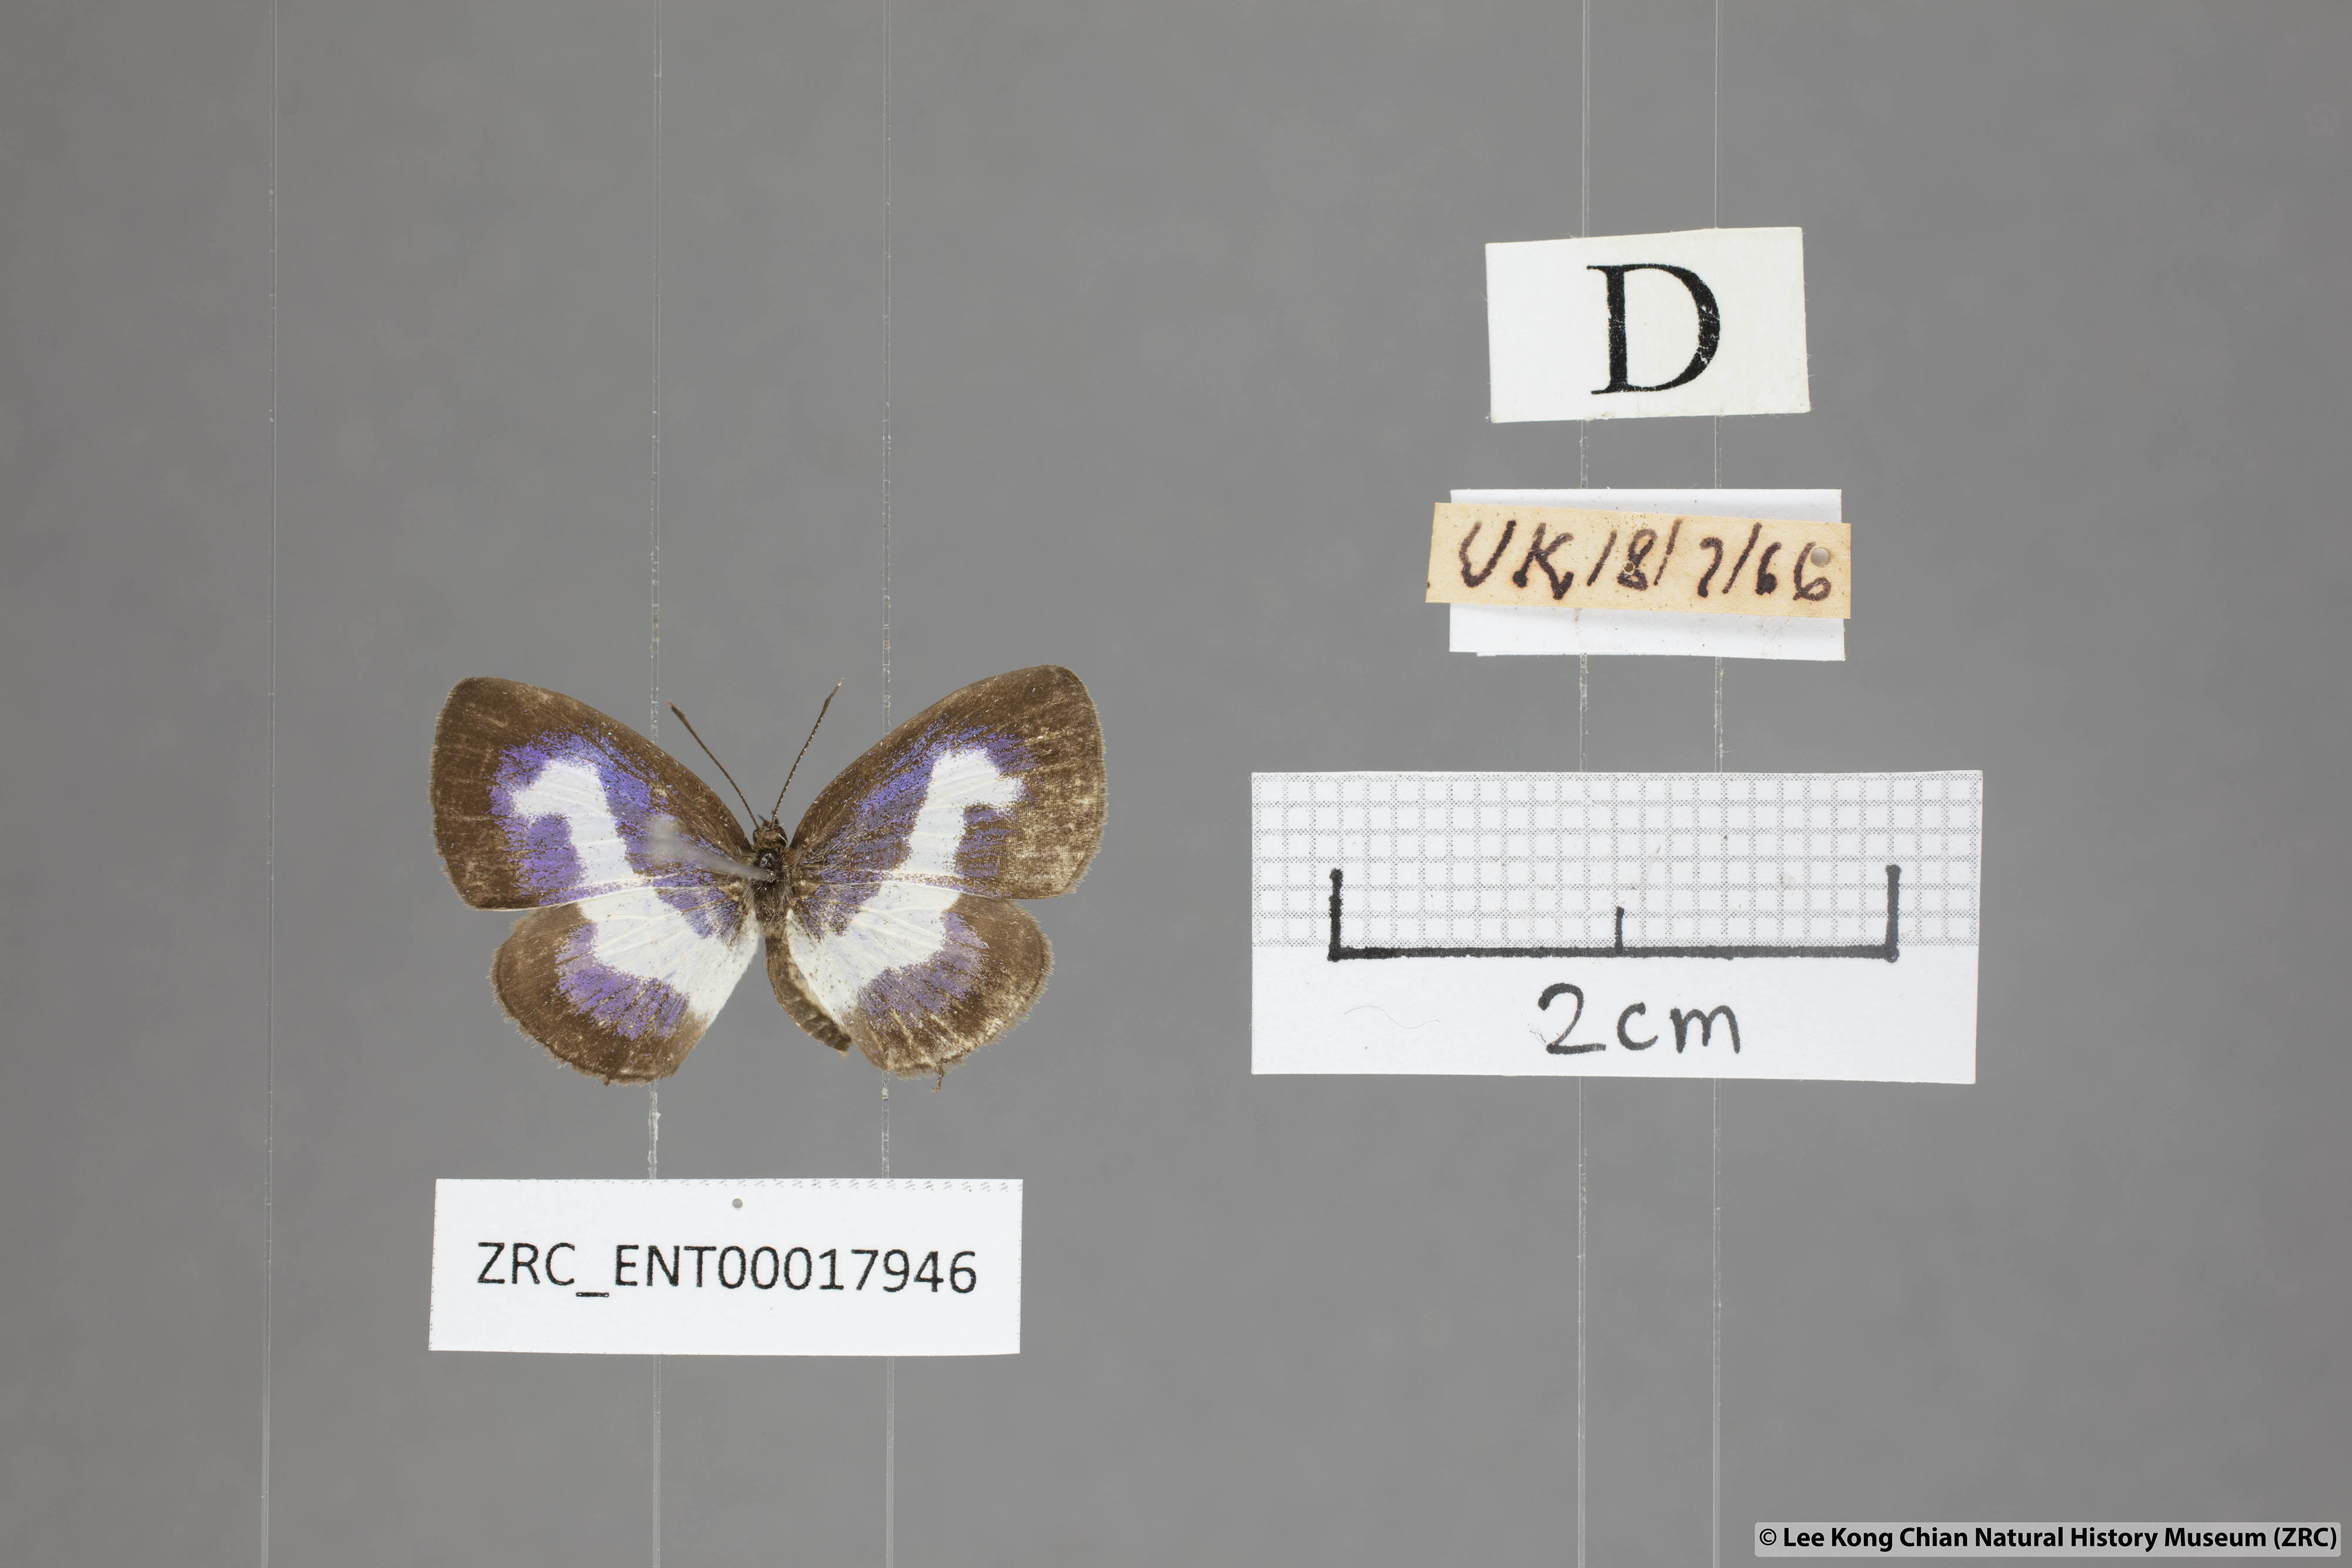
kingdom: Animalia
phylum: Arthropoda
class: Insecta
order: Lepidoptera
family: Lycaenidae
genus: Discolampa
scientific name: Discolampa ethion
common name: Banded blue pierrot
